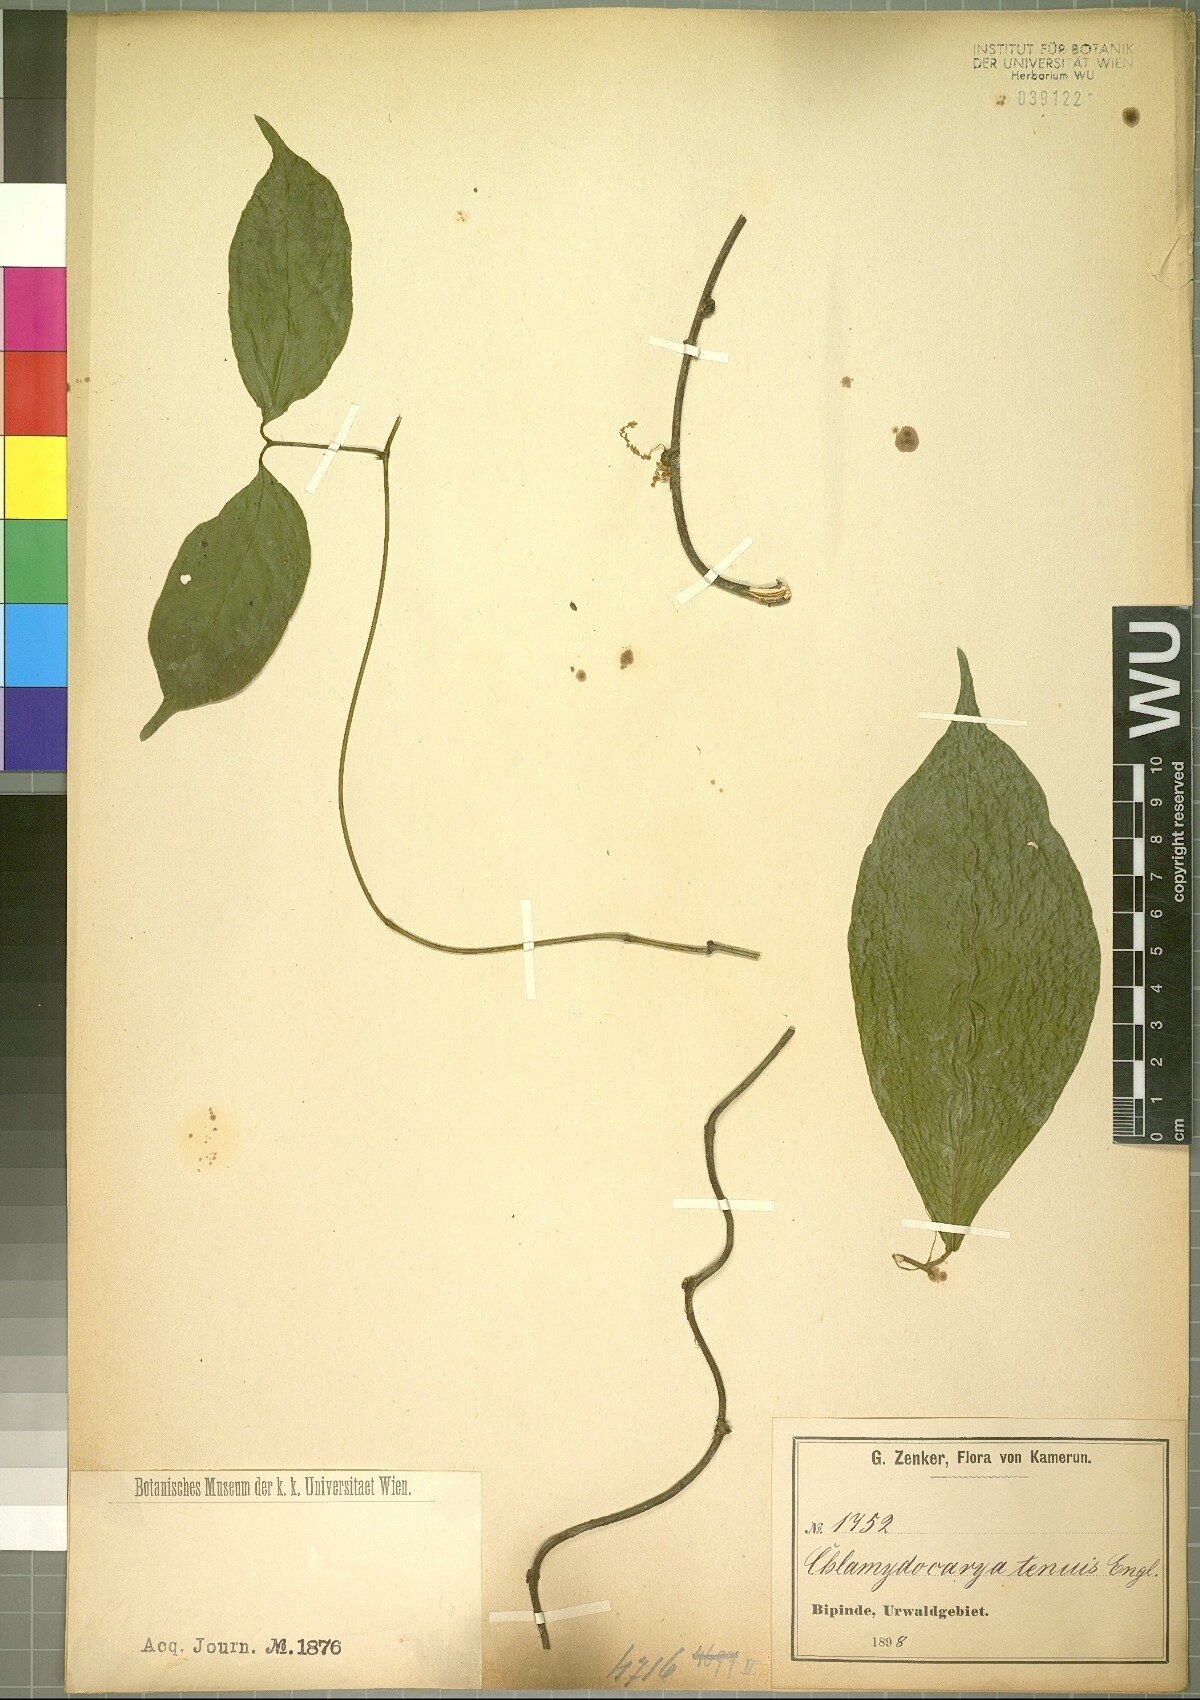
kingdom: Plantae
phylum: Tracheophyta
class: Magnoliopsida
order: Icacinales
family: Icacinaceae
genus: Pyrenacantha
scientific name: Pyrenacantha acuminata
